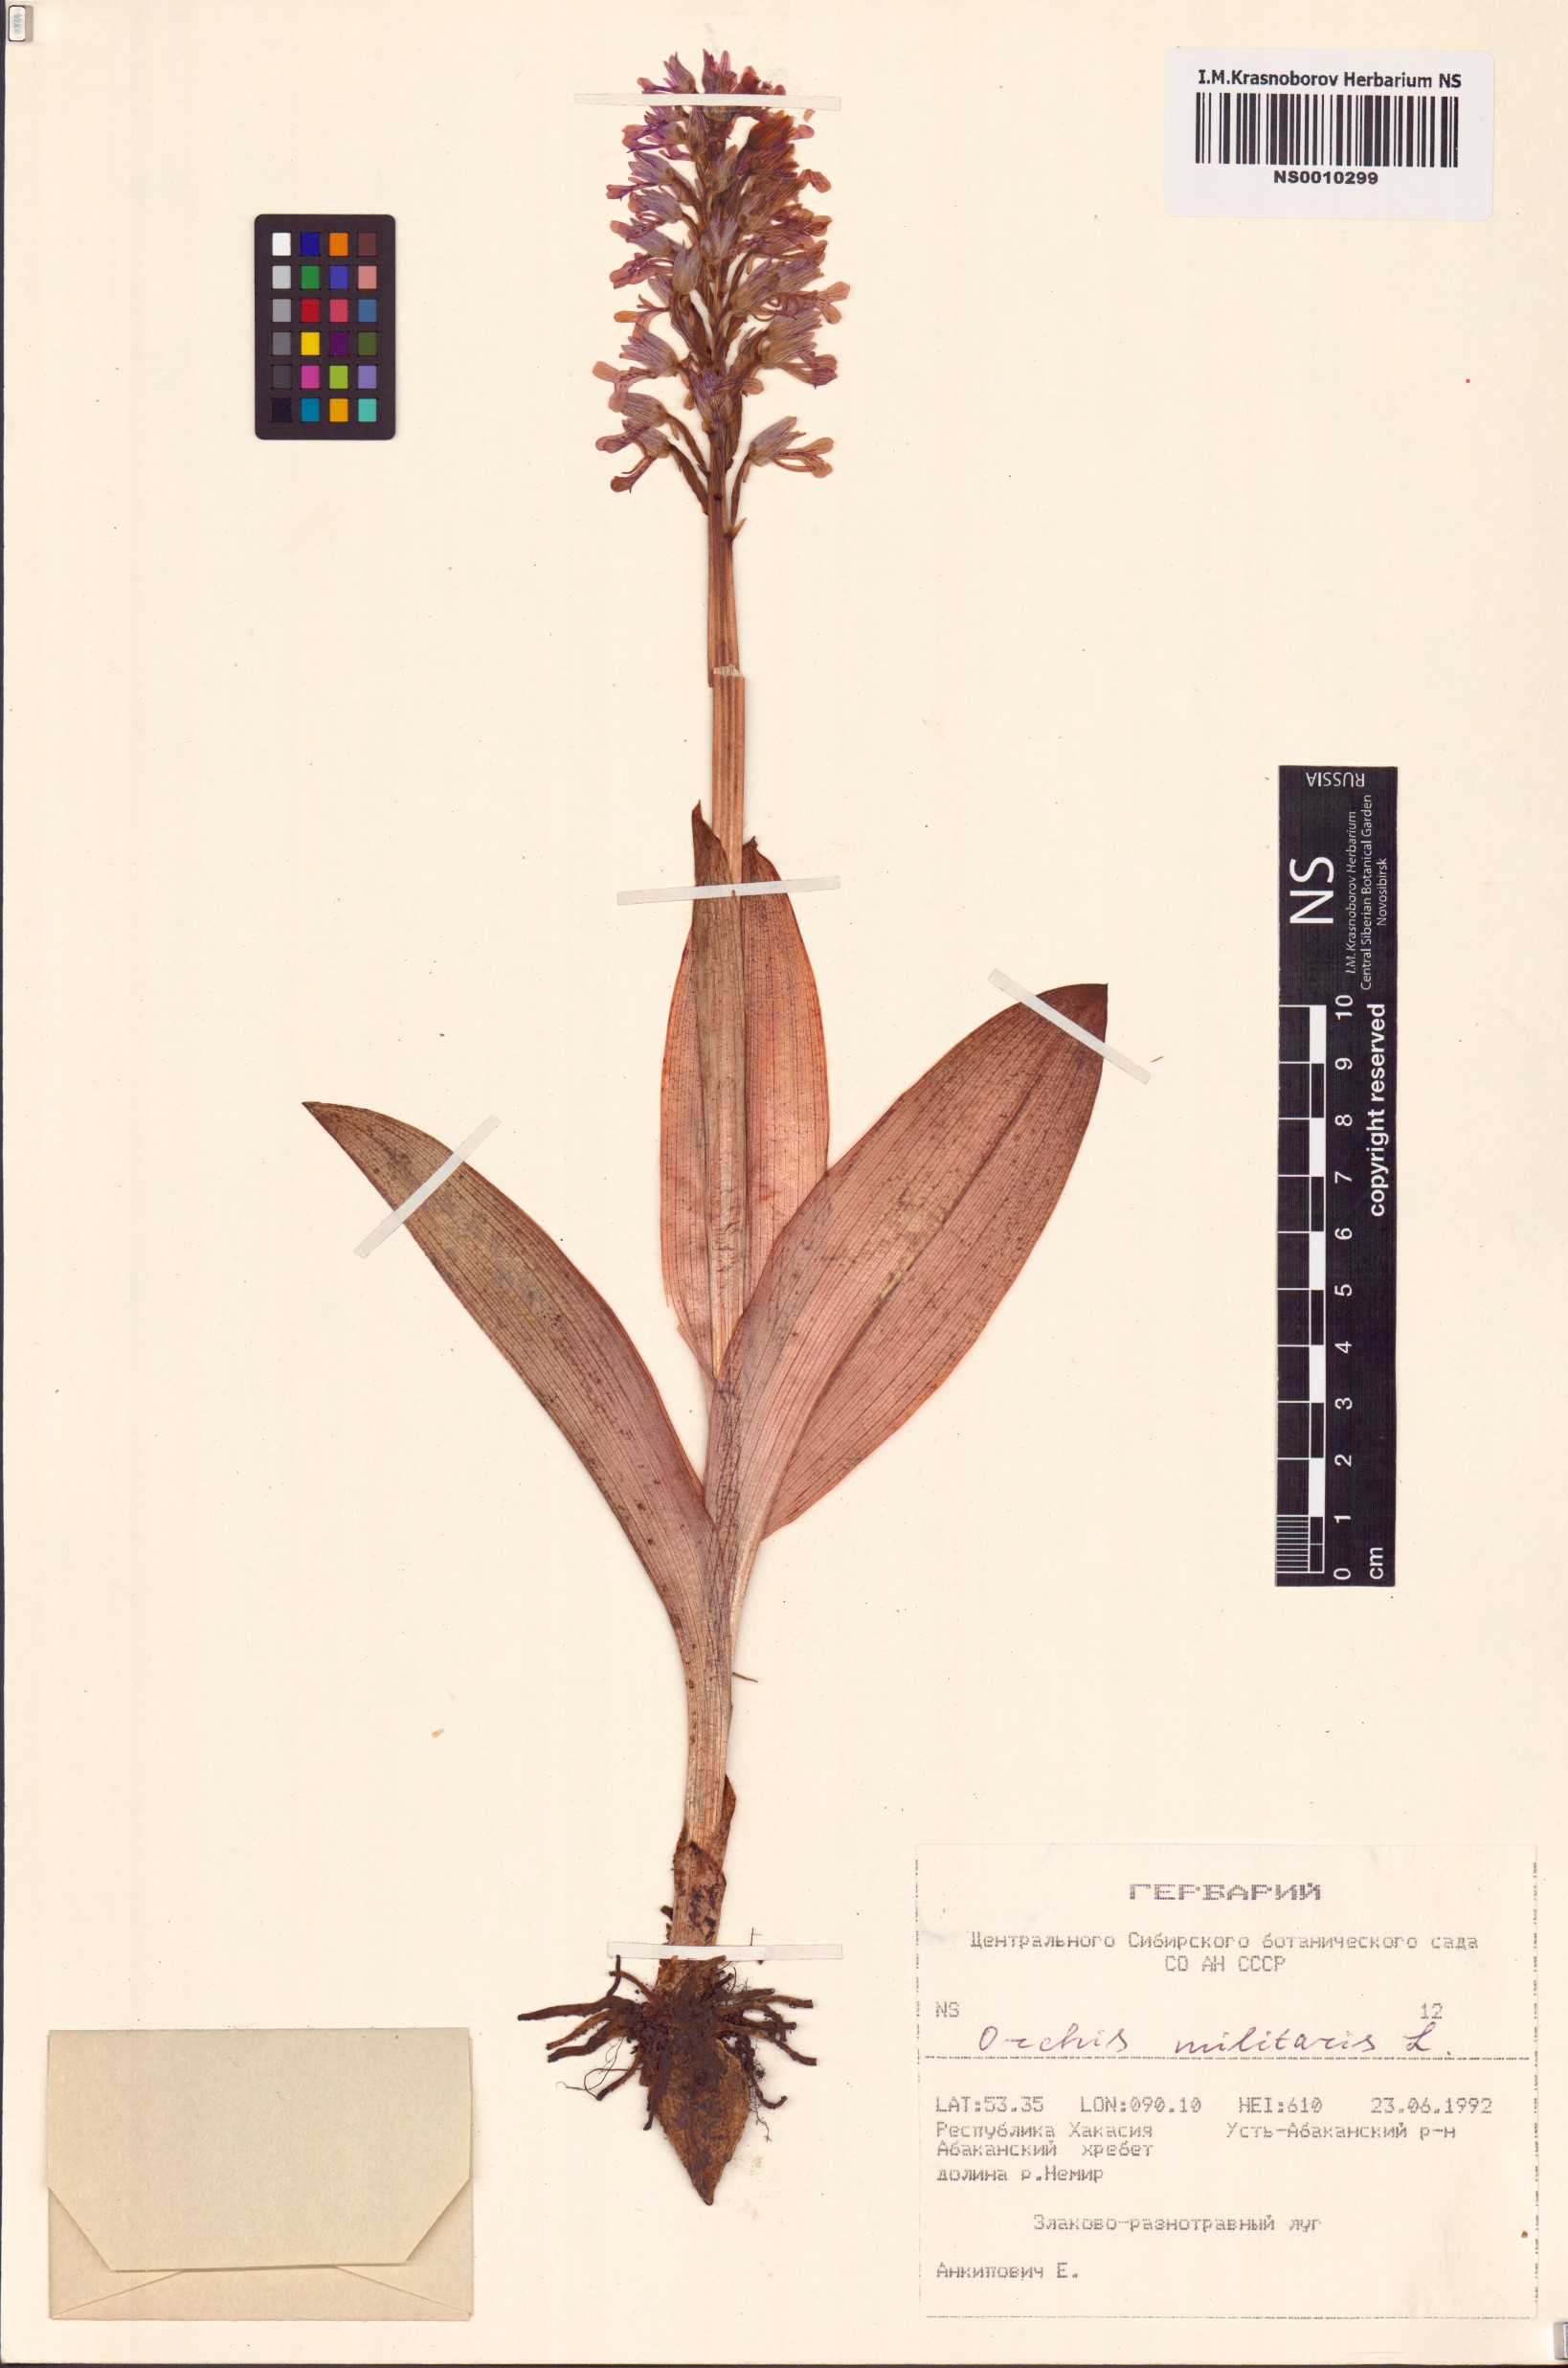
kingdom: Plantae
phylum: Tracheophyta
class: Liliopsida
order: Asparagales
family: Orchidaceae
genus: Orchis
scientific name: Orchis militaris
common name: Military orchid
